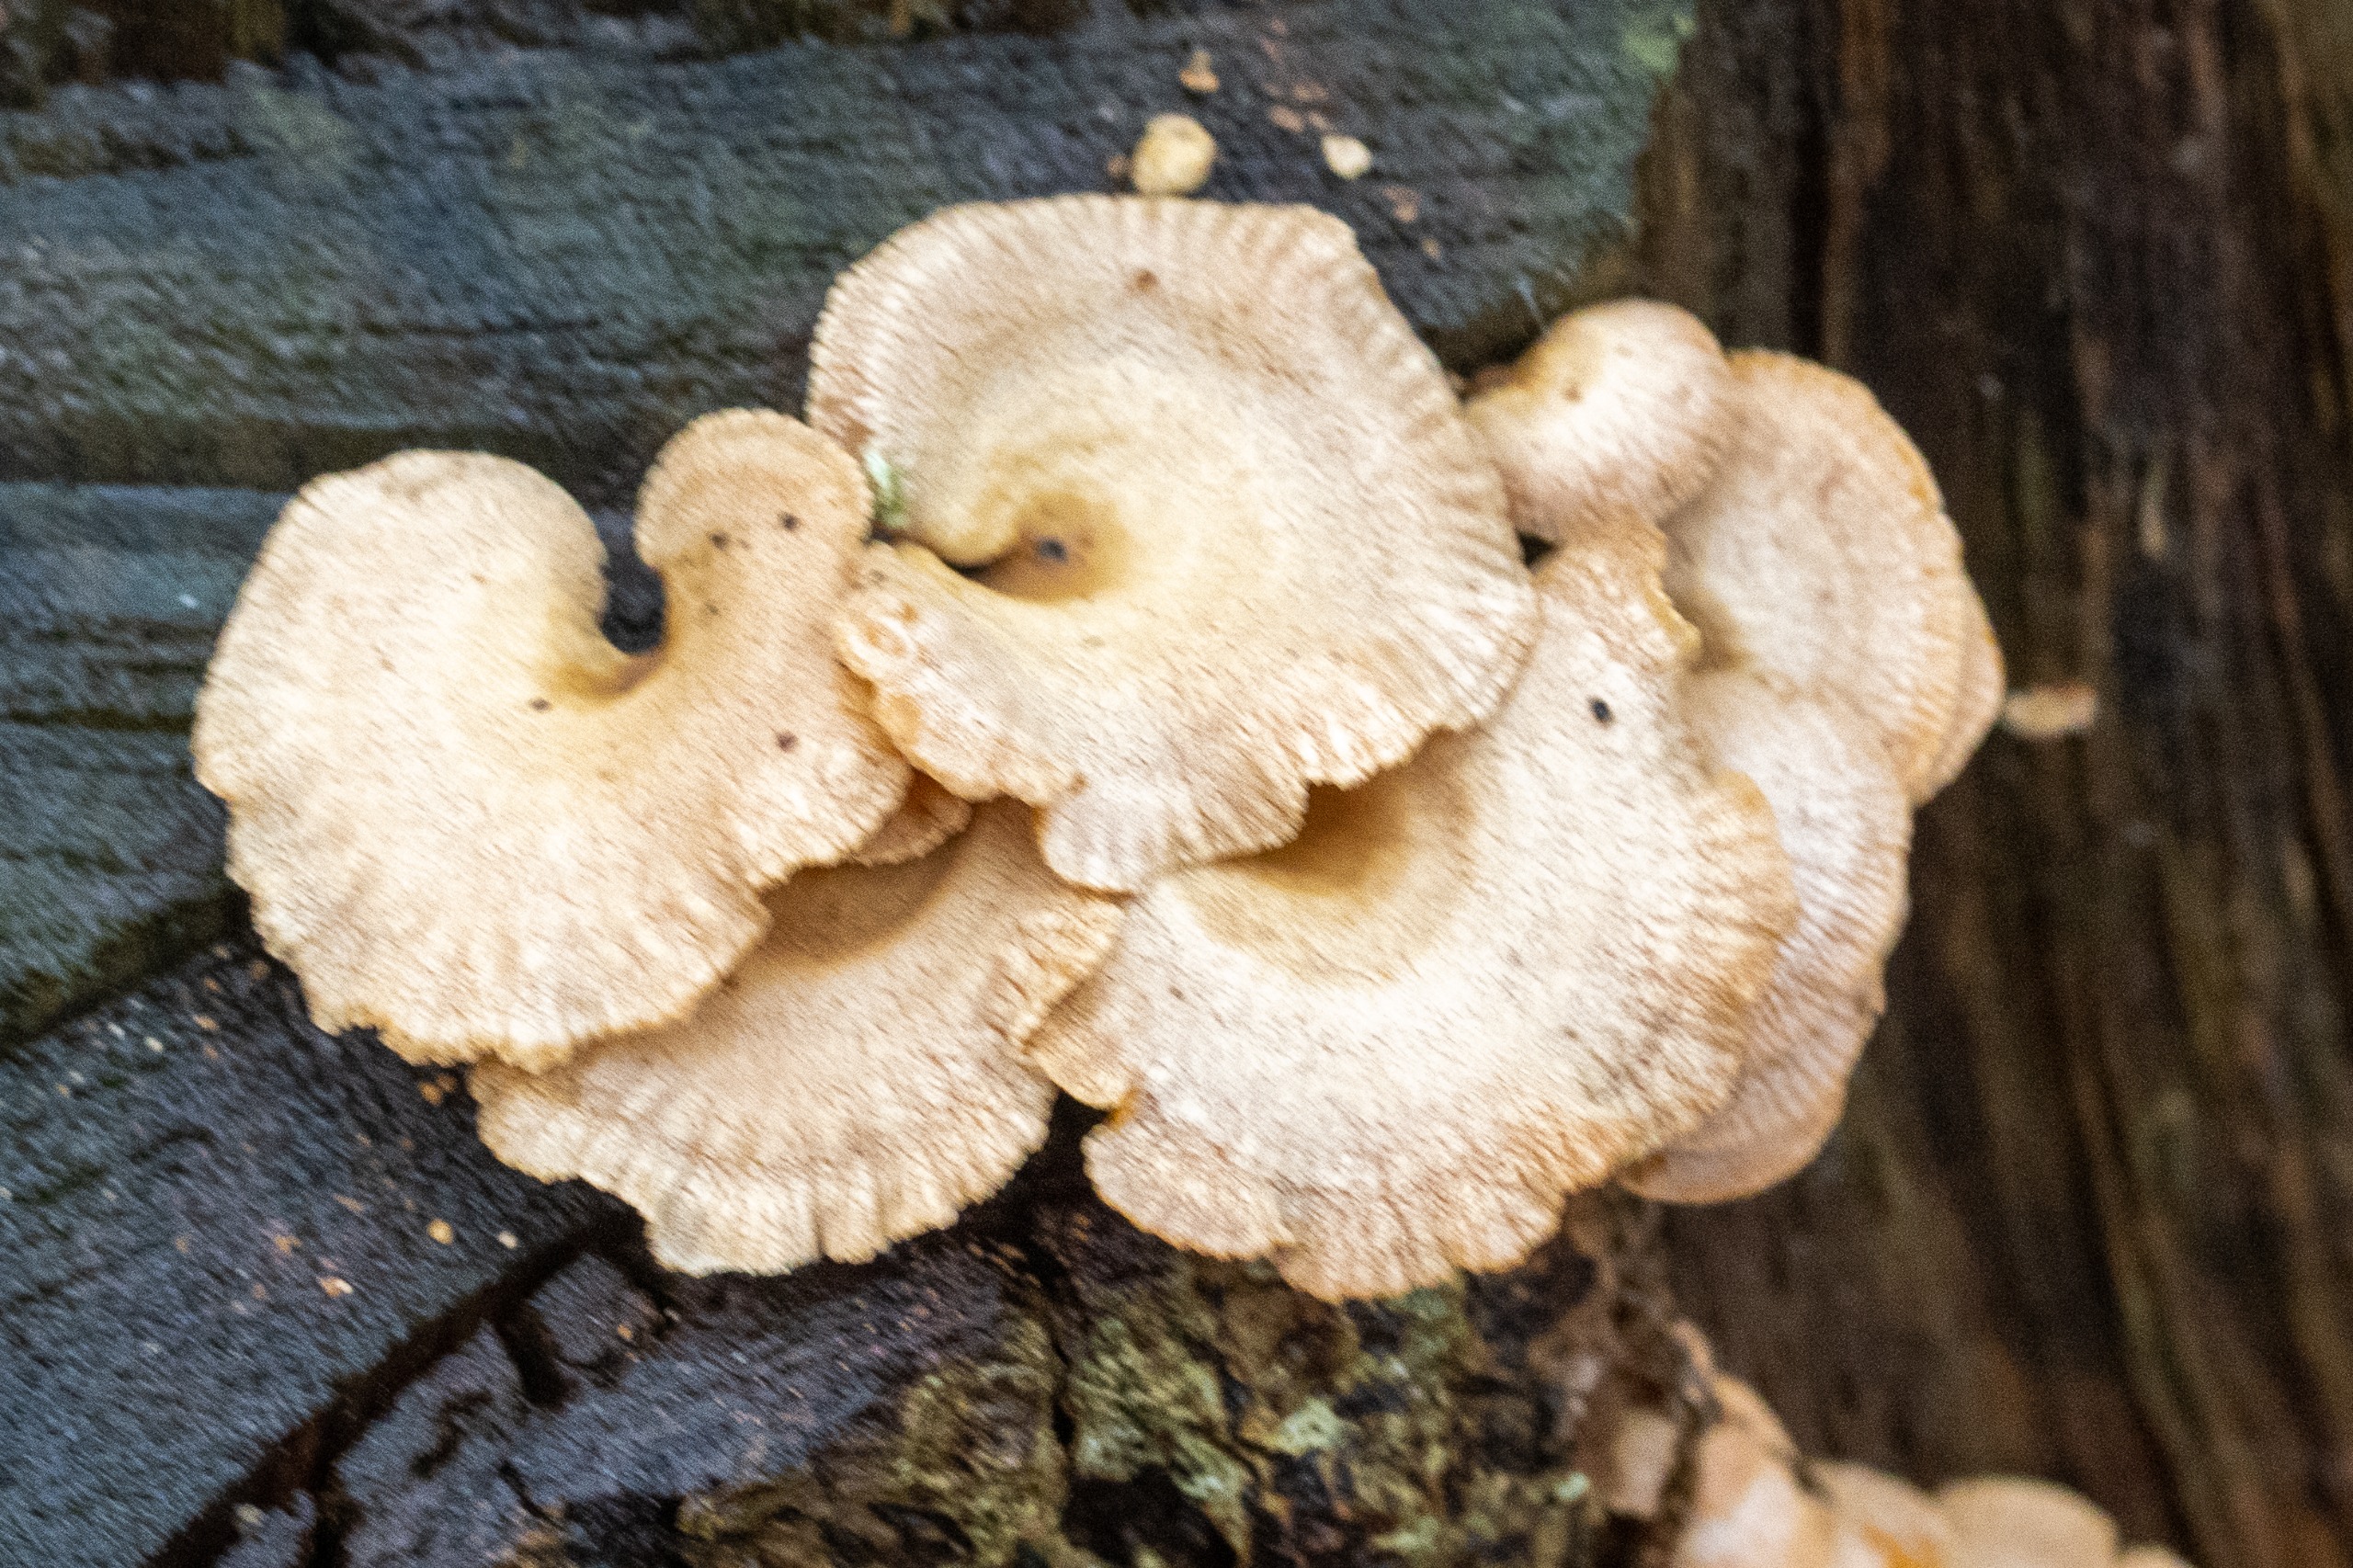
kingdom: Fungi
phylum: Basidiomycota
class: Agaricomycetes
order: Agaricales
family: Mycenaceae
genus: Panellus
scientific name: Panellus stipticus
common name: Kliddet epaulethat
